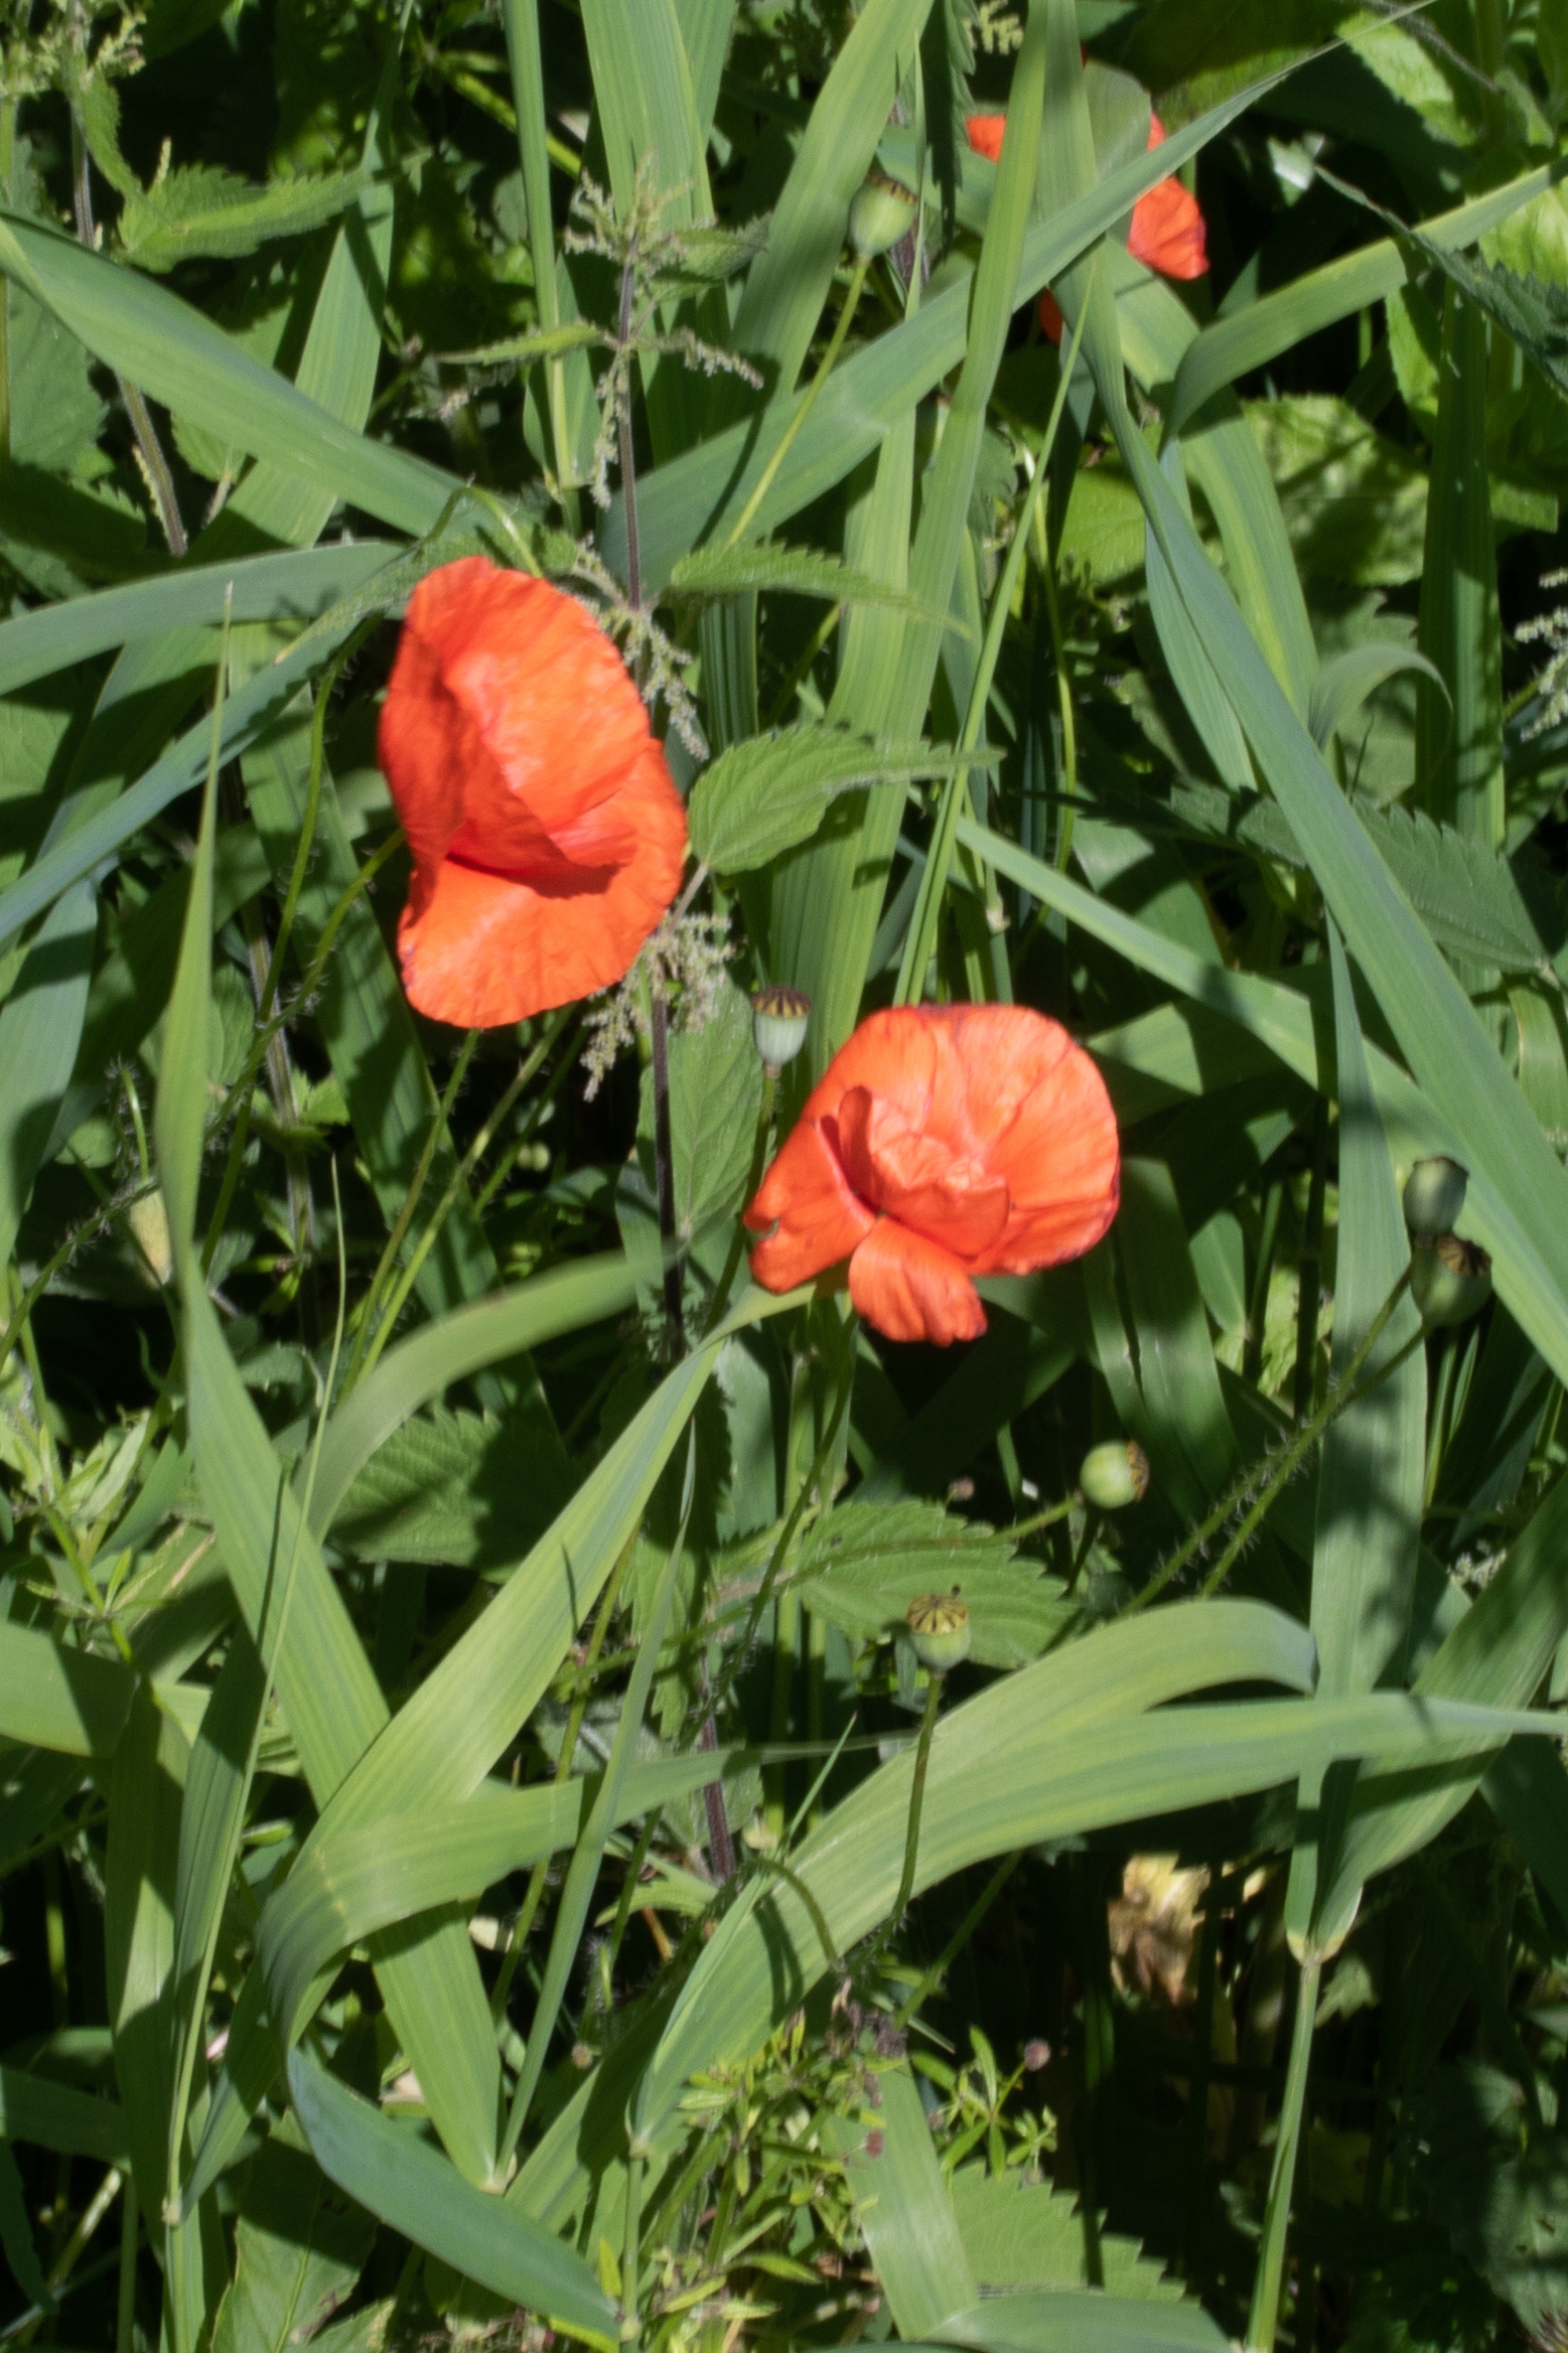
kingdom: Plantae
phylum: Tracheophyta
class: Magnoliopsida
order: Ranunculales
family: Papaveraceae
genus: Papaver
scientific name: Papaver rhoeas
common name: Korn-valmue
